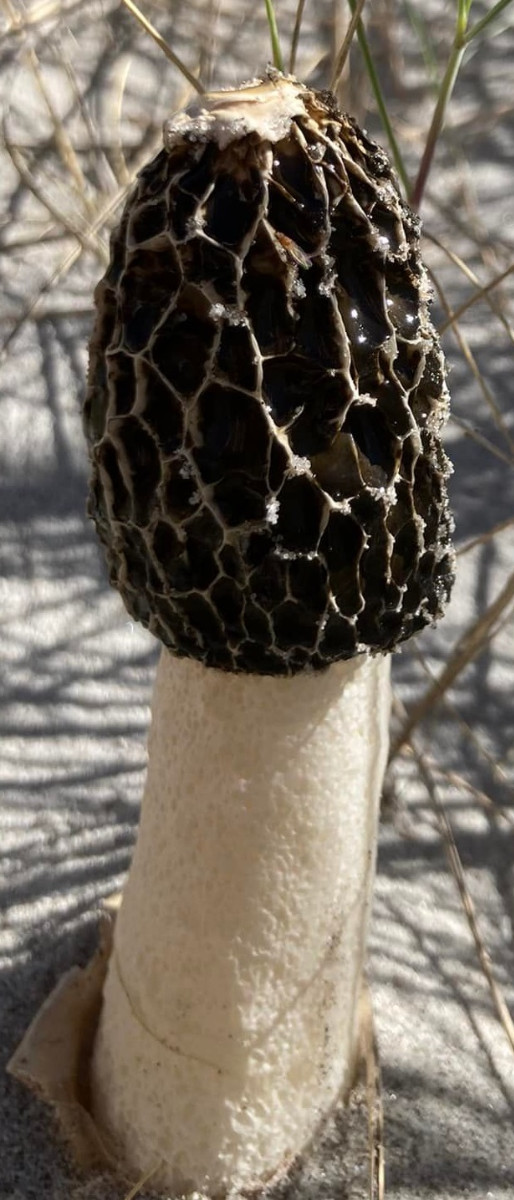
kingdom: Fungi
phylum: Basidiomycota
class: Agaricomycetes
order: Phallales
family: Phallaceae
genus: Phallus
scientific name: Phallus hadriani
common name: sand-stinksvamp
